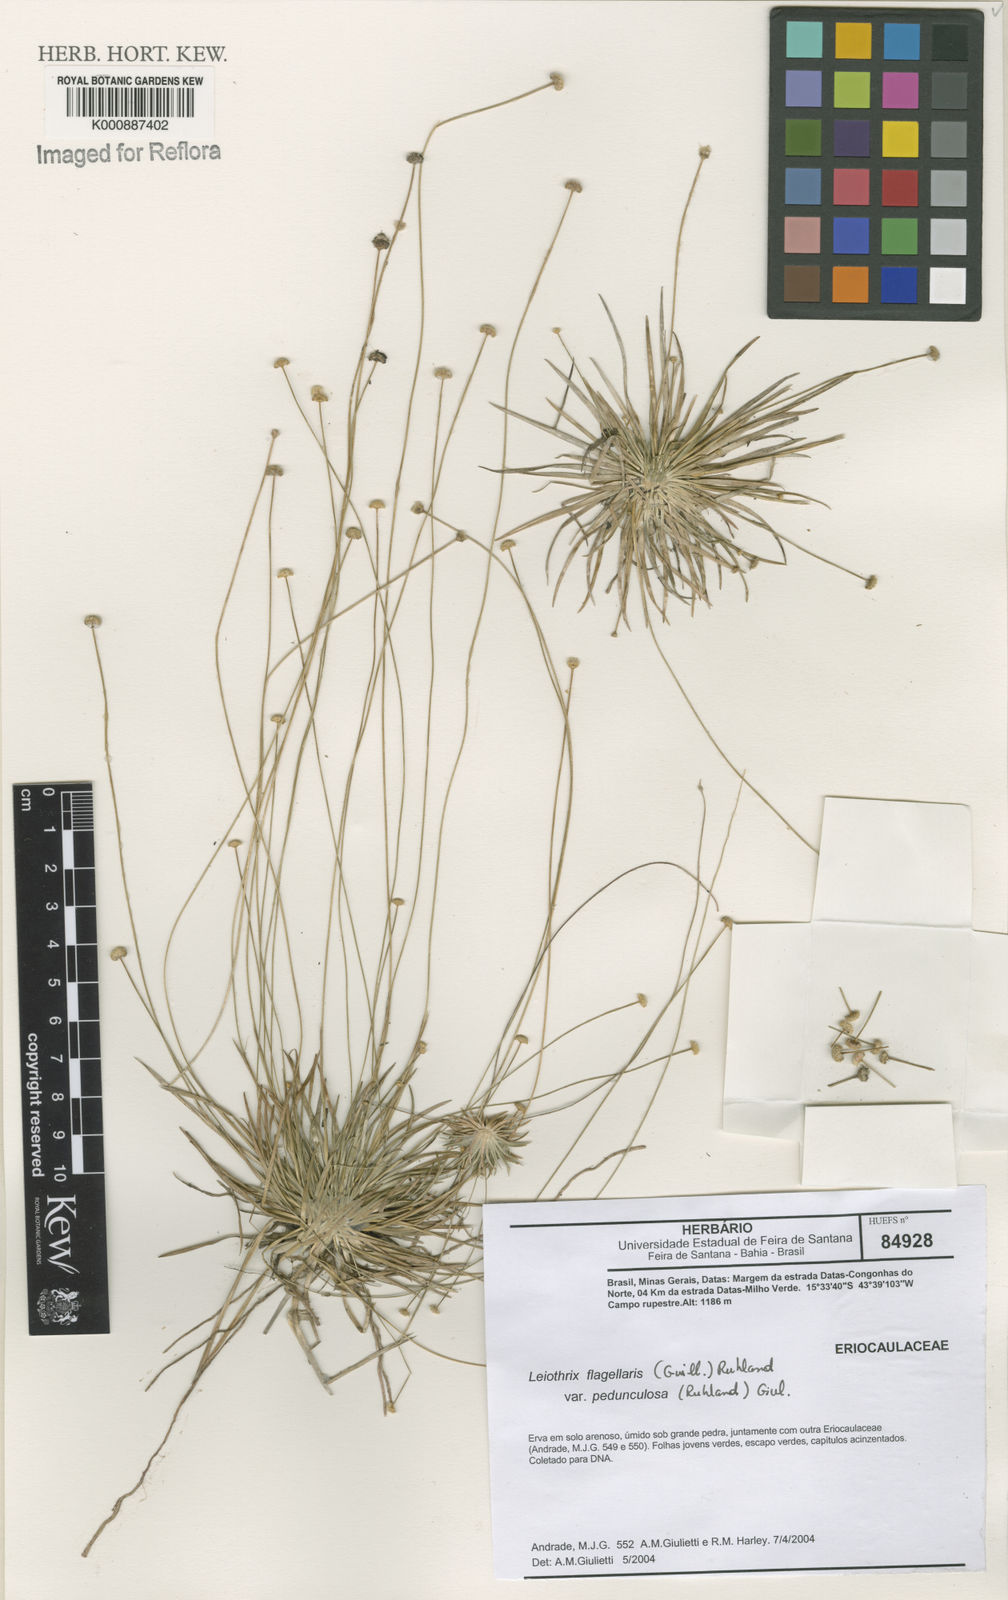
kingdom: Plantae
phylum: Tracheophyta
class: Liliopsida
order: Poales
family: Eriocaulaceae
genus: Leiothrix
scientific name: Leiothrix flagellaris
